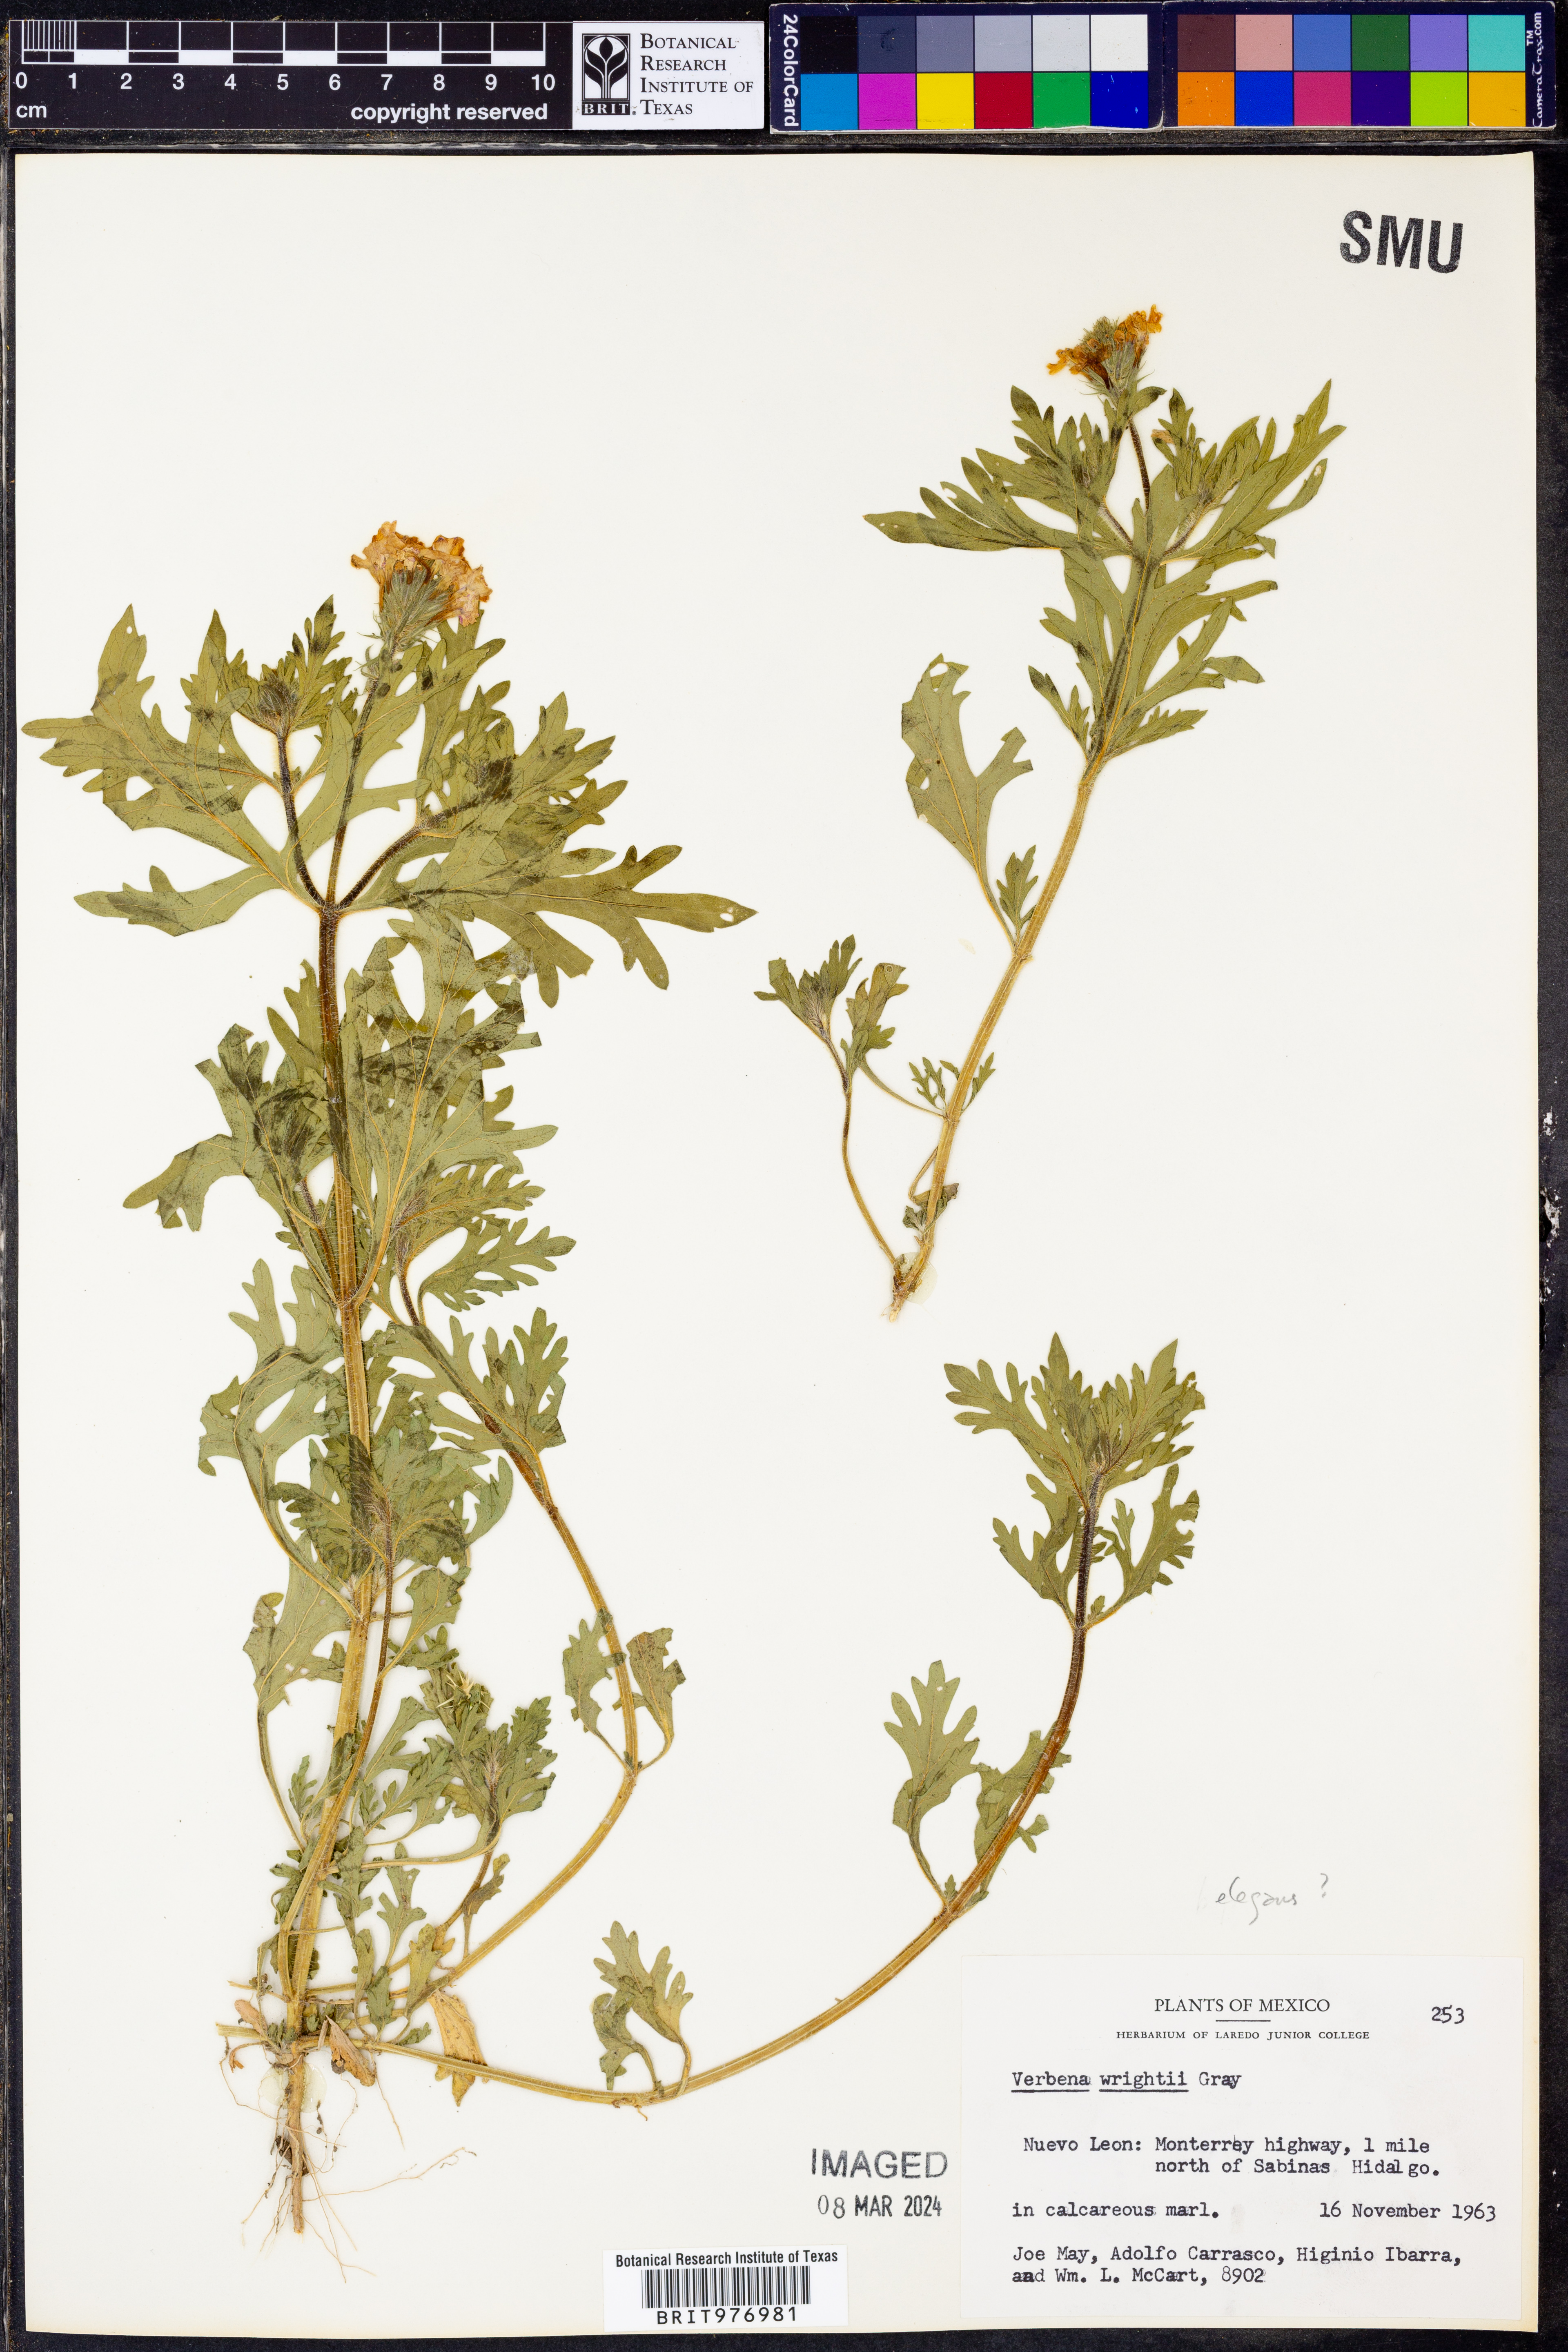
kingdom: Plantae
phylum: Tracheophyta
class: Magnoliopsida
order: Lamiales
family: Verbenaceae
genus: Verbena
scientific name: Verbena elegans
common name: Elegant vervain
